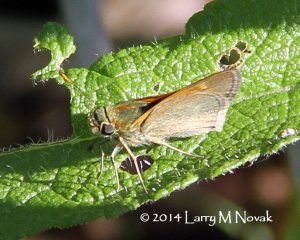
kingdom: Animalia
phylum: Arthropoda
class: Insecta
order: Lepidoptera
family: Hesperiidae
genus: Polites
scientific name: Polites themistocles
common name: Tawny-edged Skipper
